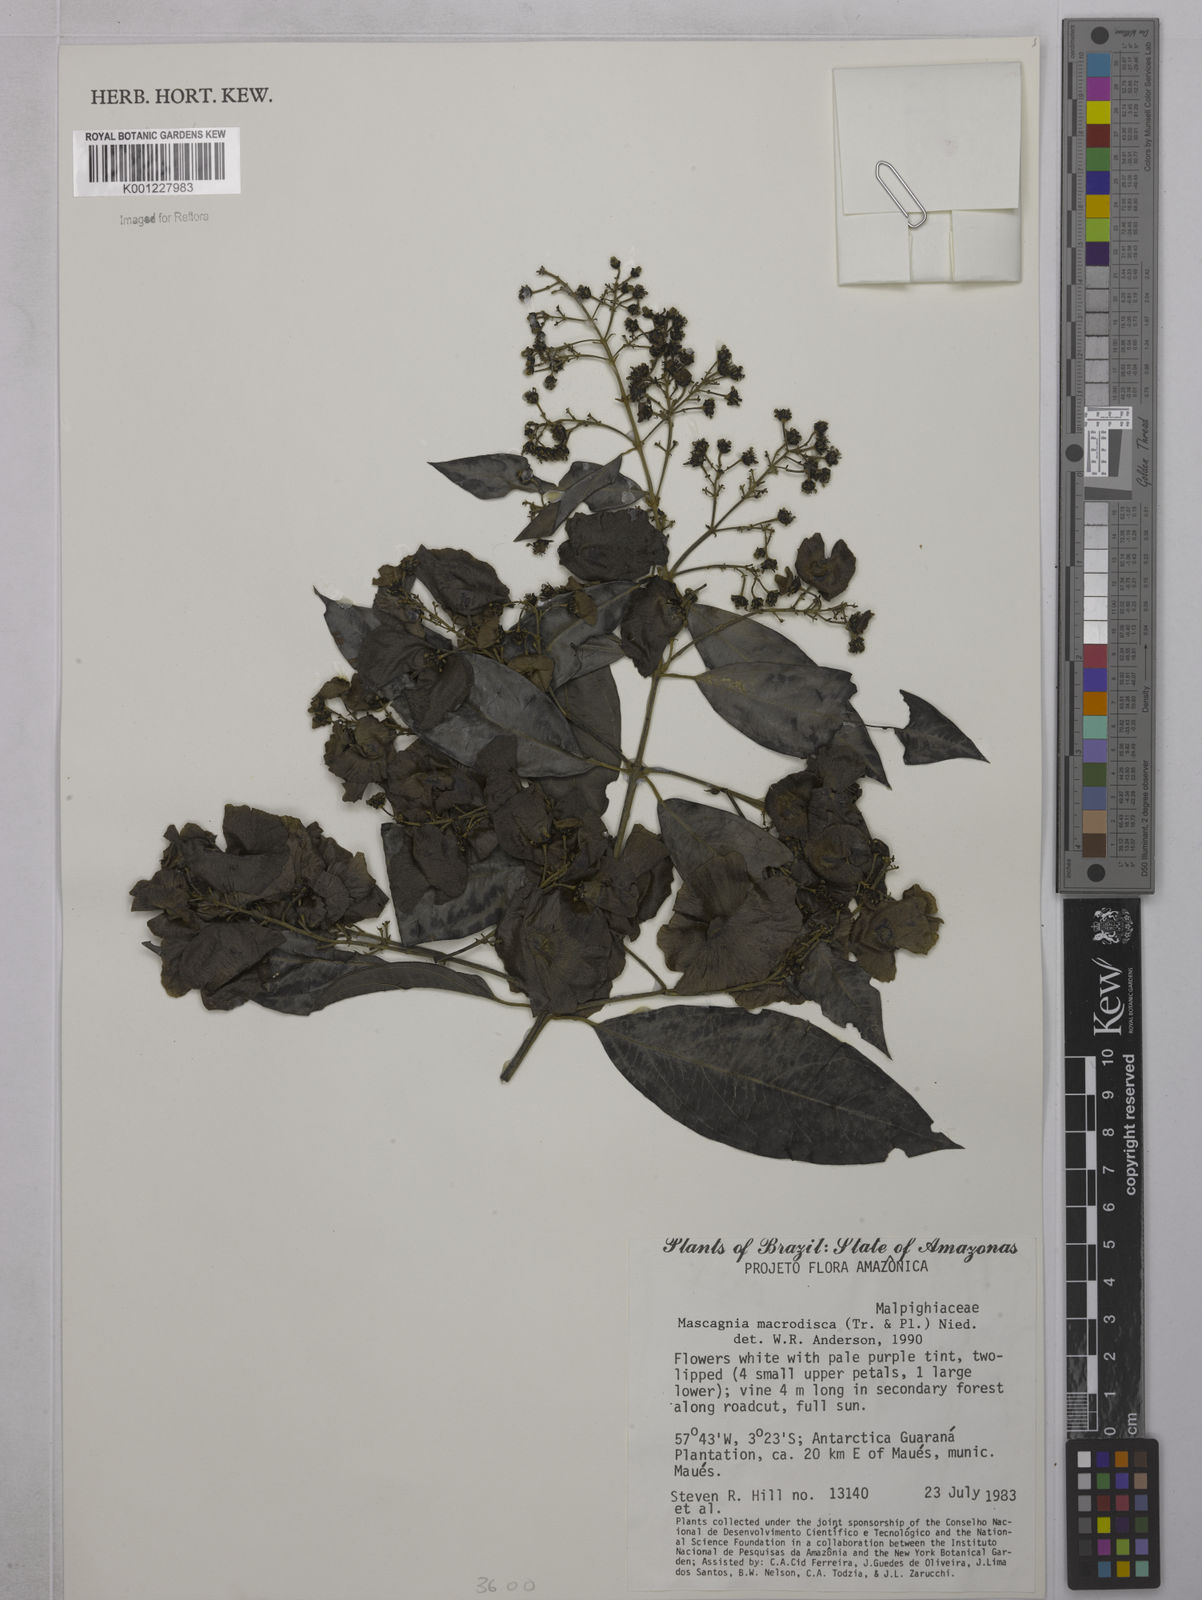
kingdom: Plantae
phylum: Tracheophyta
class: Magnoliopsida
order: Malpighiales
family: Malpighiaceae
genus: Alicia
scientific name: Alicia
